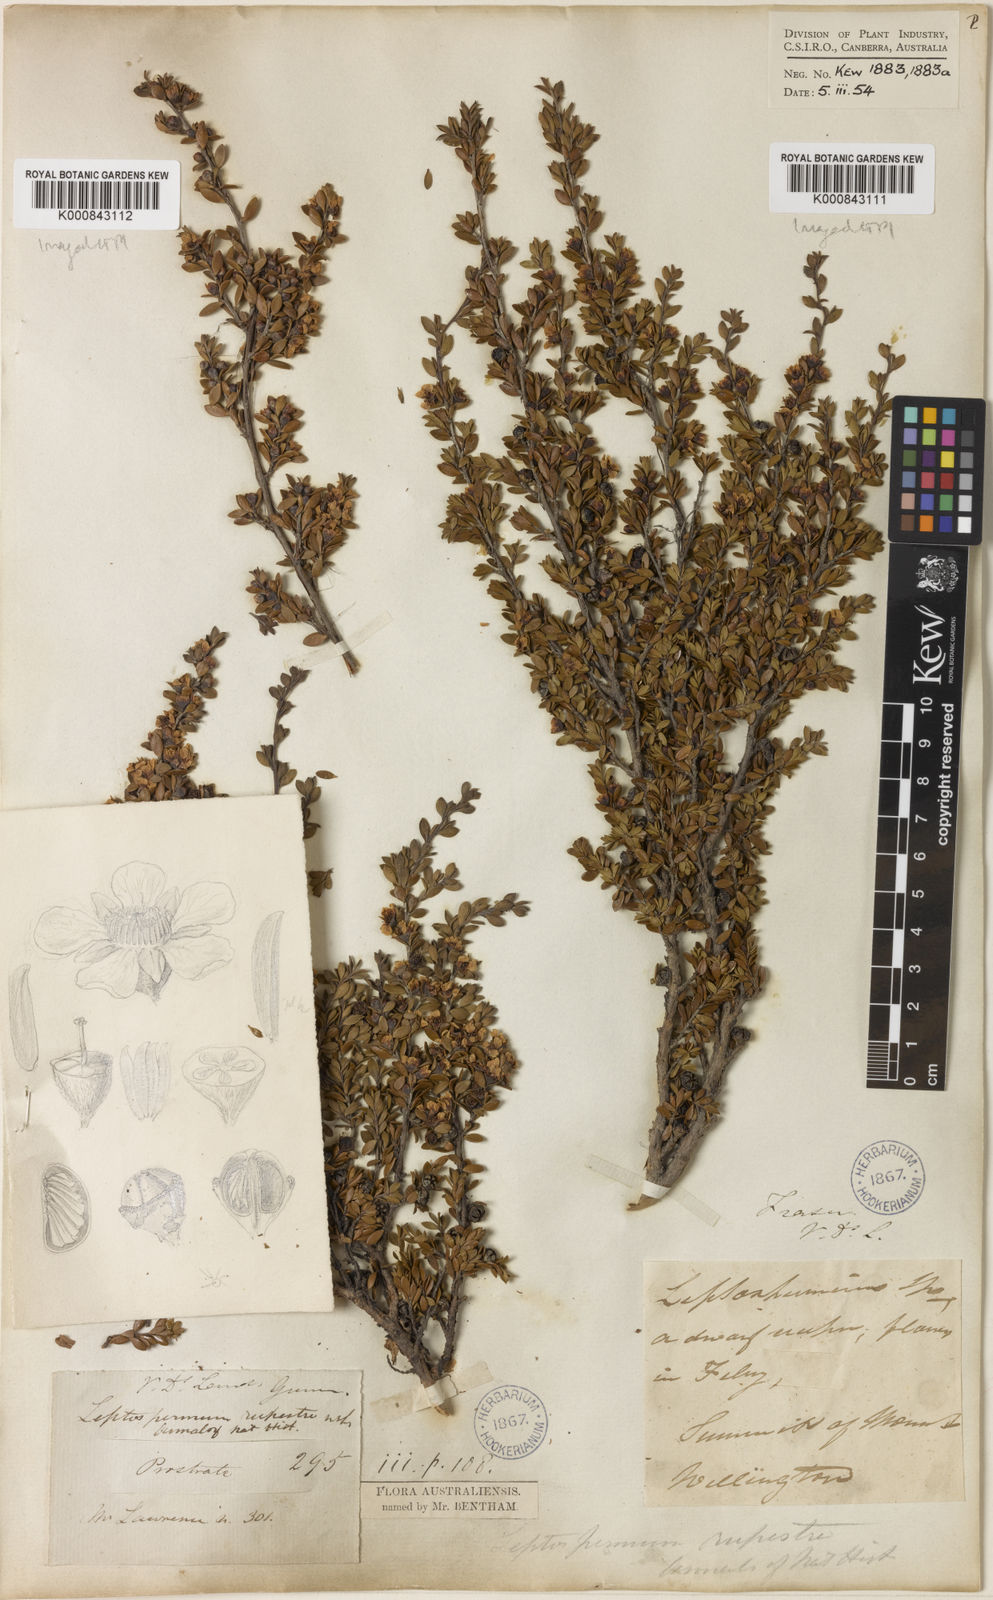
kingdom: Plantae
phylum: Tracheophyta
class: Magnoliopsida
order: Myrtales
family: Myrtaceae
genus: Leptospermum
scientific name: Leptospermum rupestre
